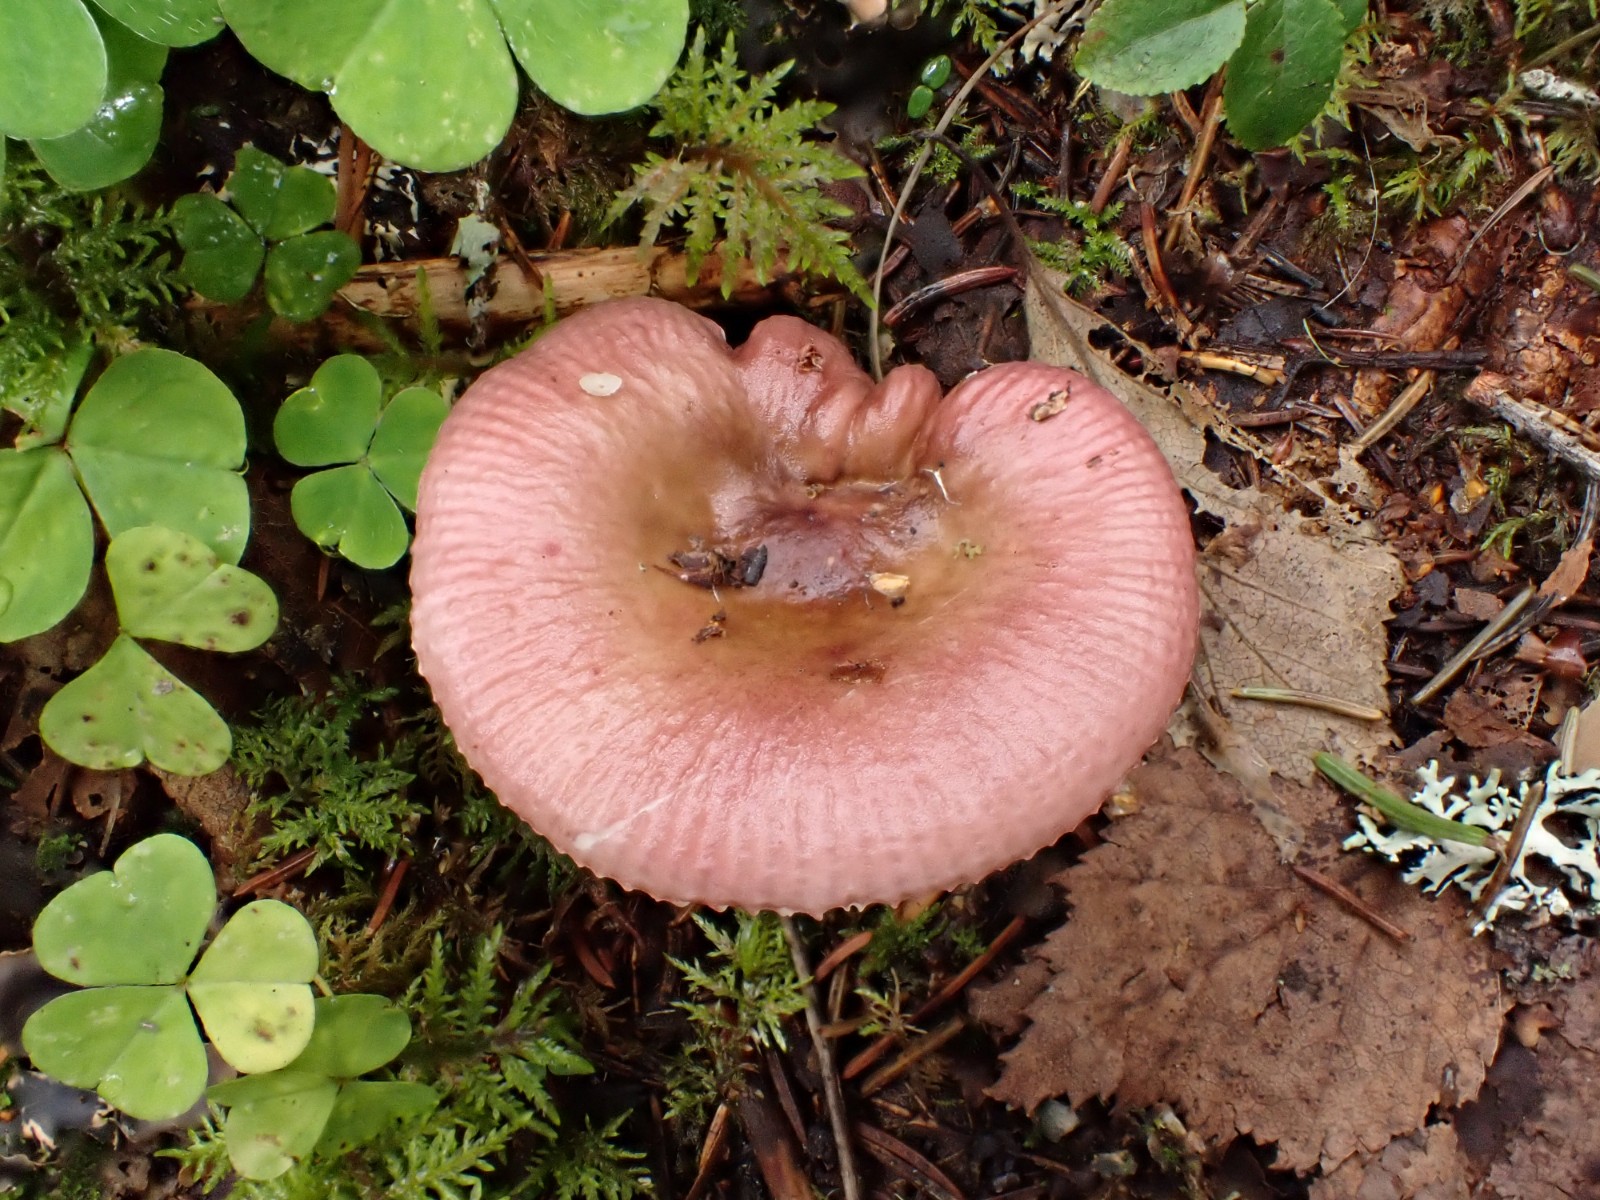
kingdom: Fungi
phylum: Basidiomycota
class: Agaricomycetes
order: Russulales
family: Russulaceae
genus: Russula
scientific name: Russula nitida
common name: året skørhat
